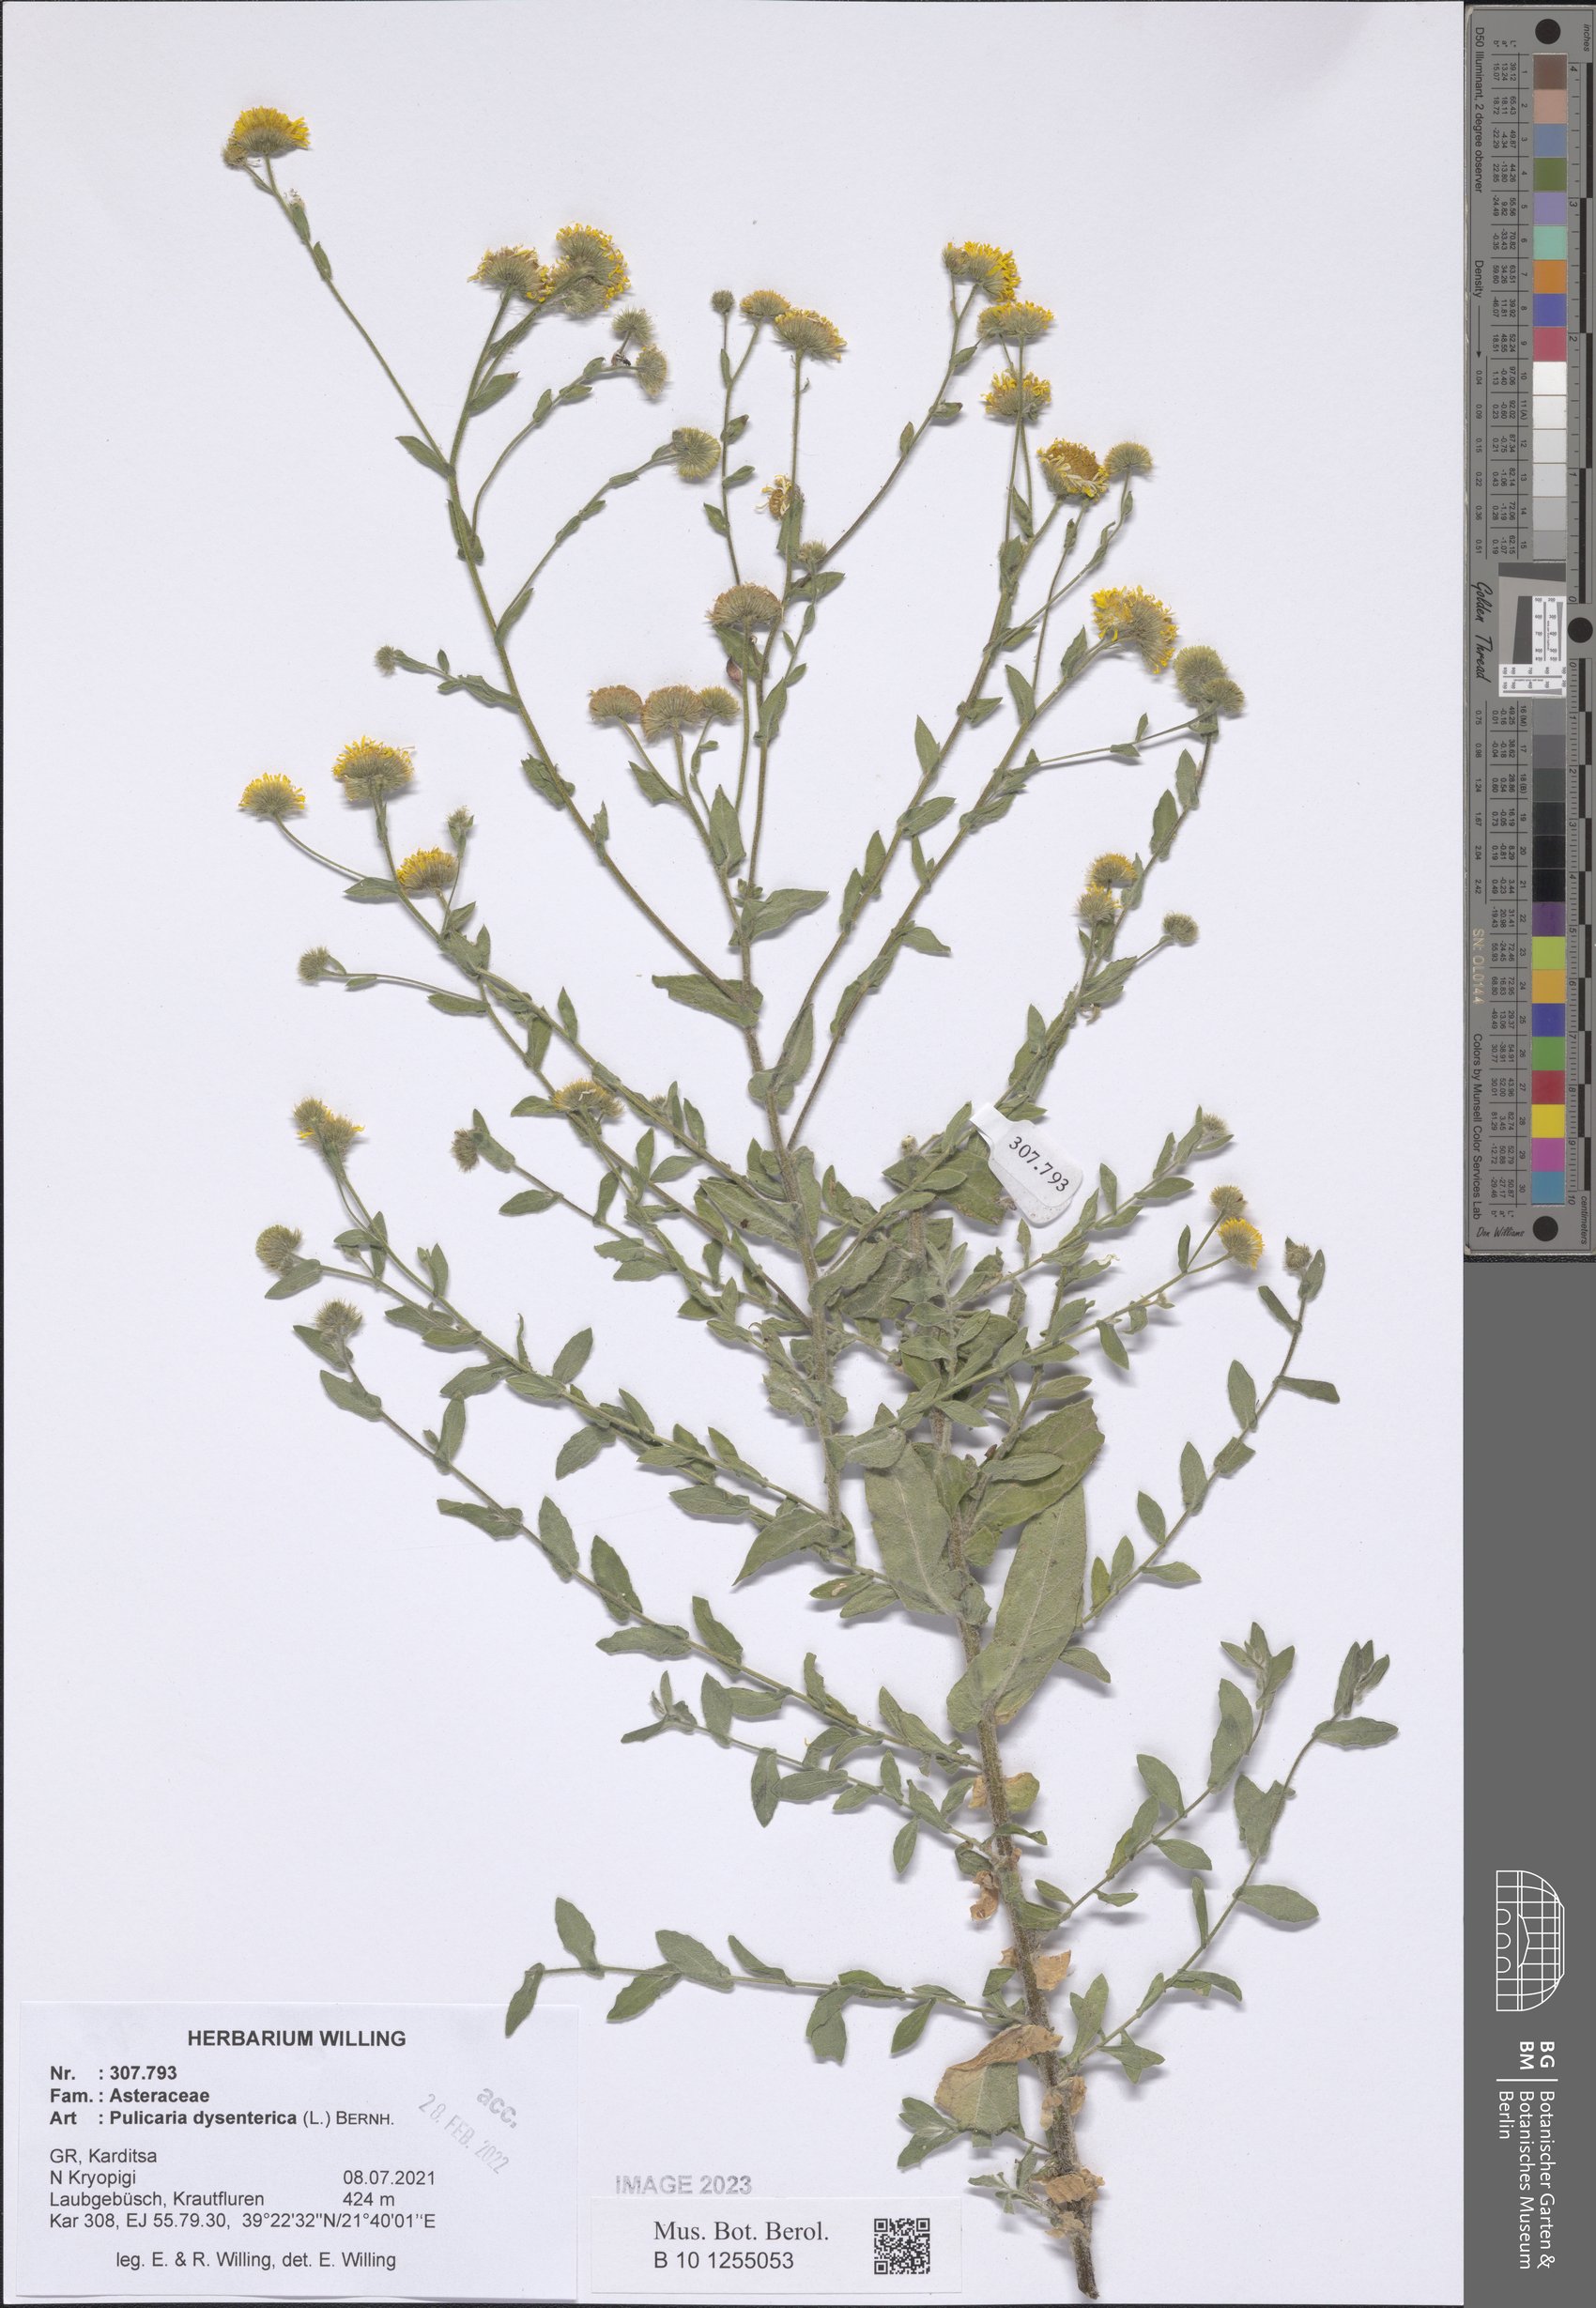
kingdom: Plantae
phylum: Tracheophyta
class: Magnoliopsida
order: Asterales
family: Asteraceae
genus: Pulicaria
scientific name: Pulicaria dysenterica
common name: Common fleabane
